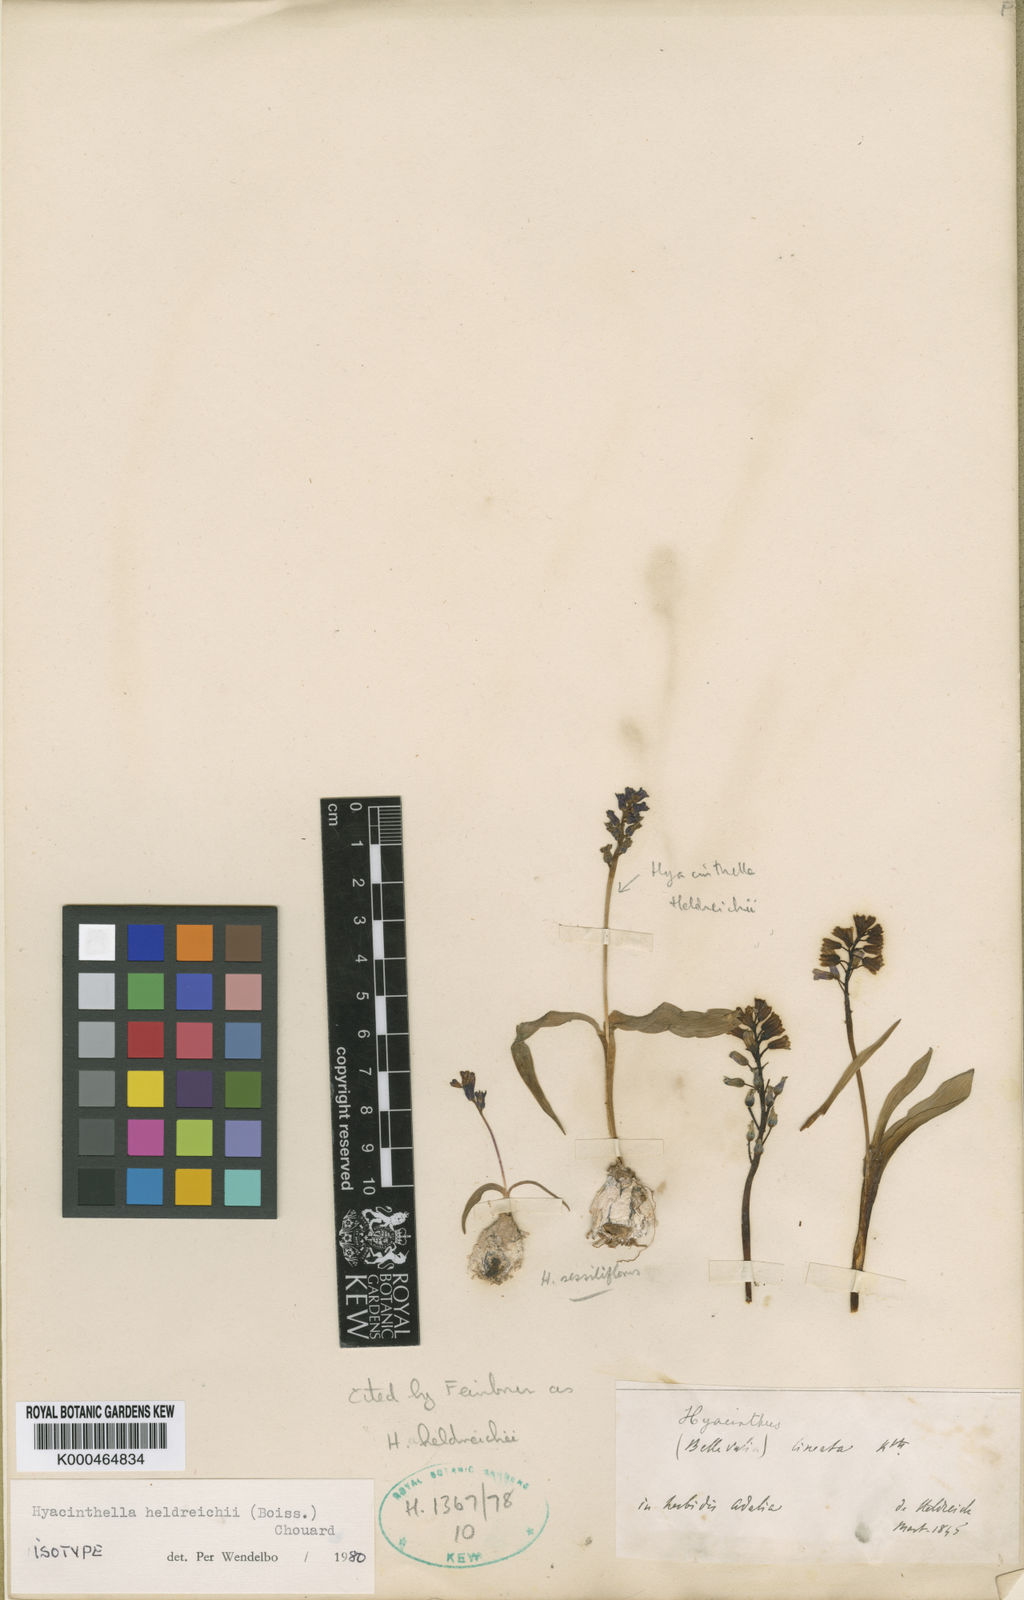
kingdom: Plantae
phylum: Tracheophyta
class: Liliopsida
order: Asparagales
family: Asparagaceae
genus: Hyacinthus
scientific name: Hyacinthus
